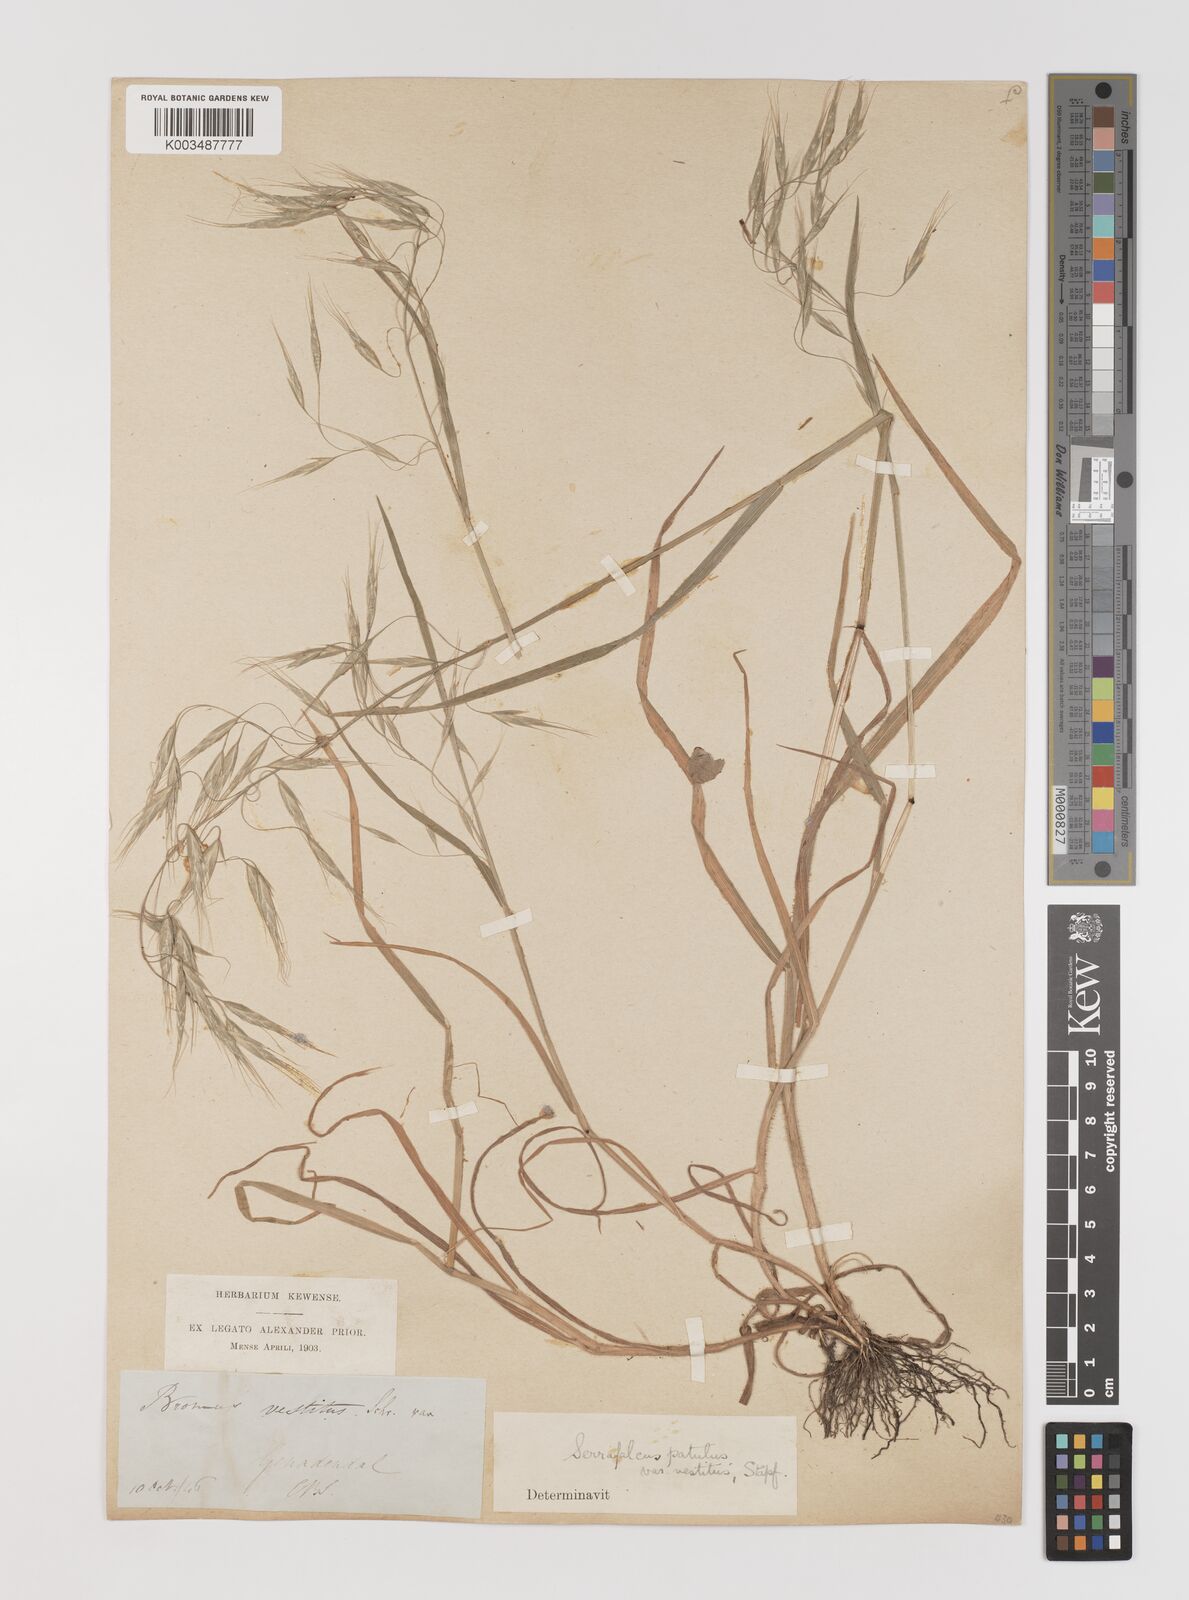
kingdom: Plantae
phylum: Tracheophyta
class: Liliopsida
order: Poales
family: Poaceae
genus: Bromus
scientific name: Bromus pectinatus
